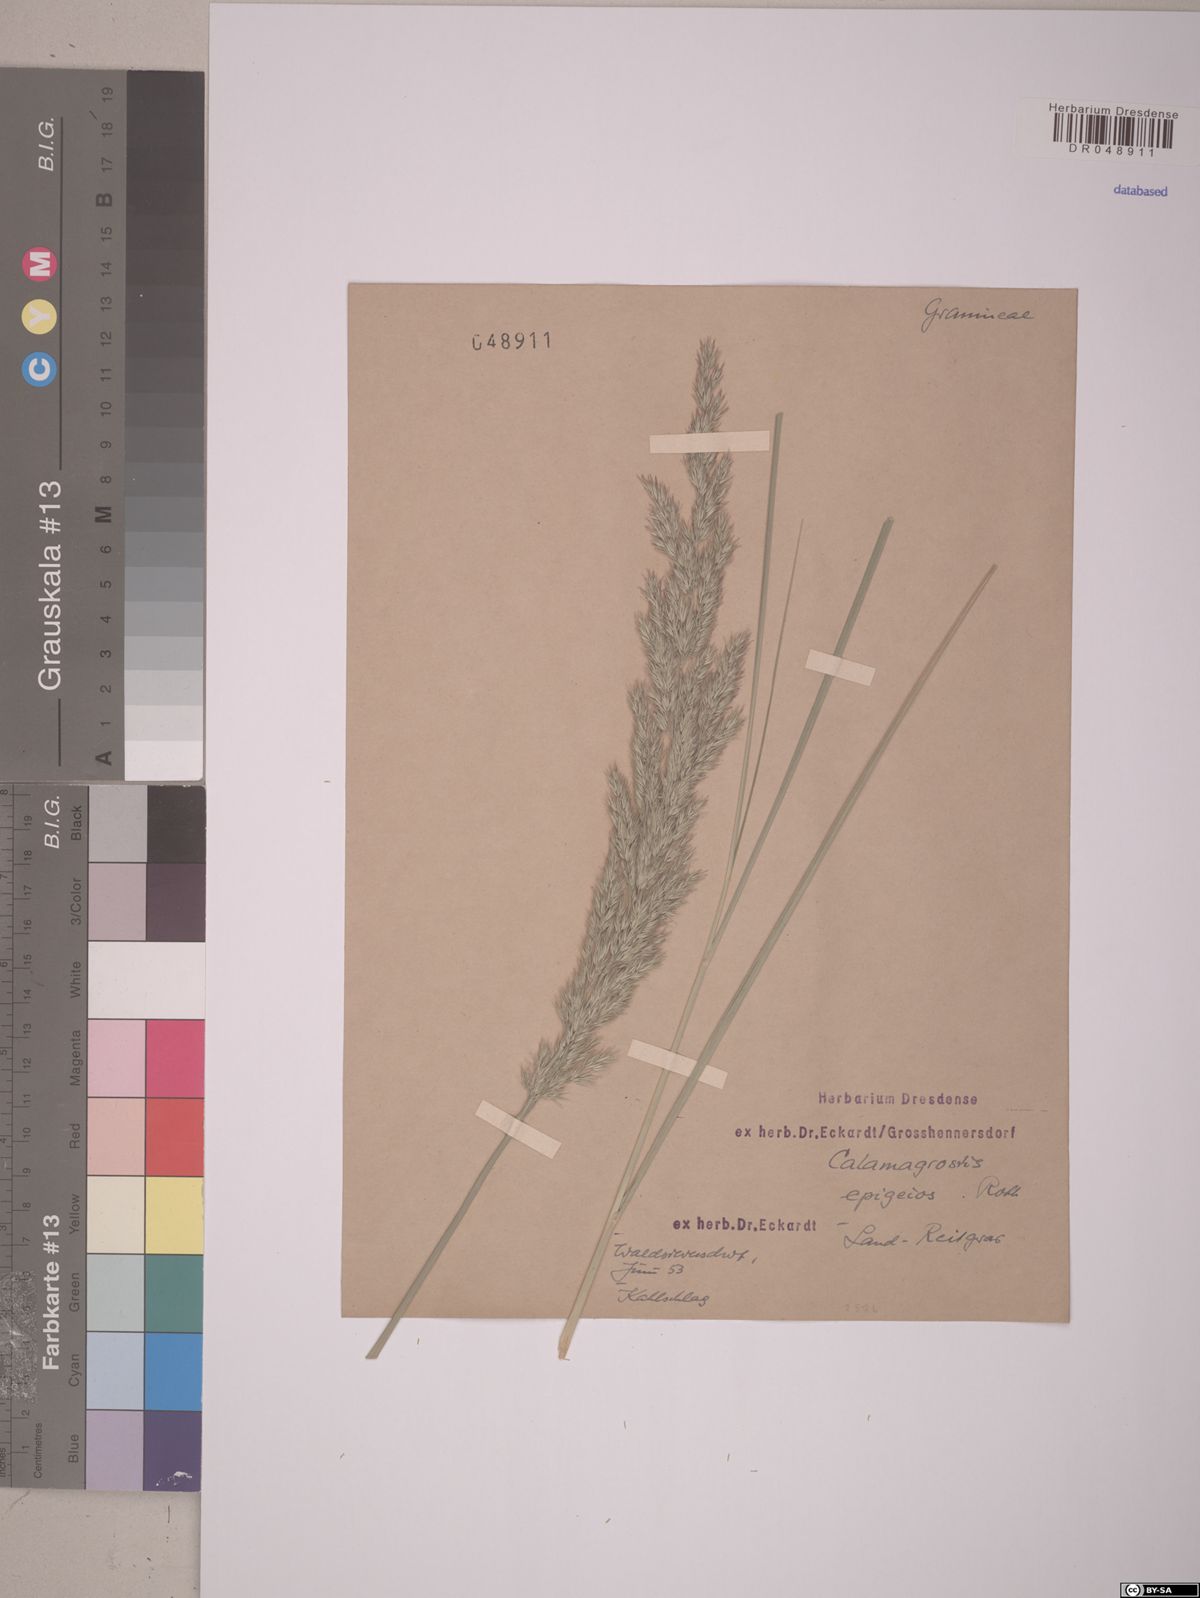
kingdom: Plantae
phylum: Tracheophyta
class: Liliopsida
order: Poales
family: Poaceae
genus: Calamagrostis
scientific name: Calamagrostis epigejos
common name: Wood small-reed
